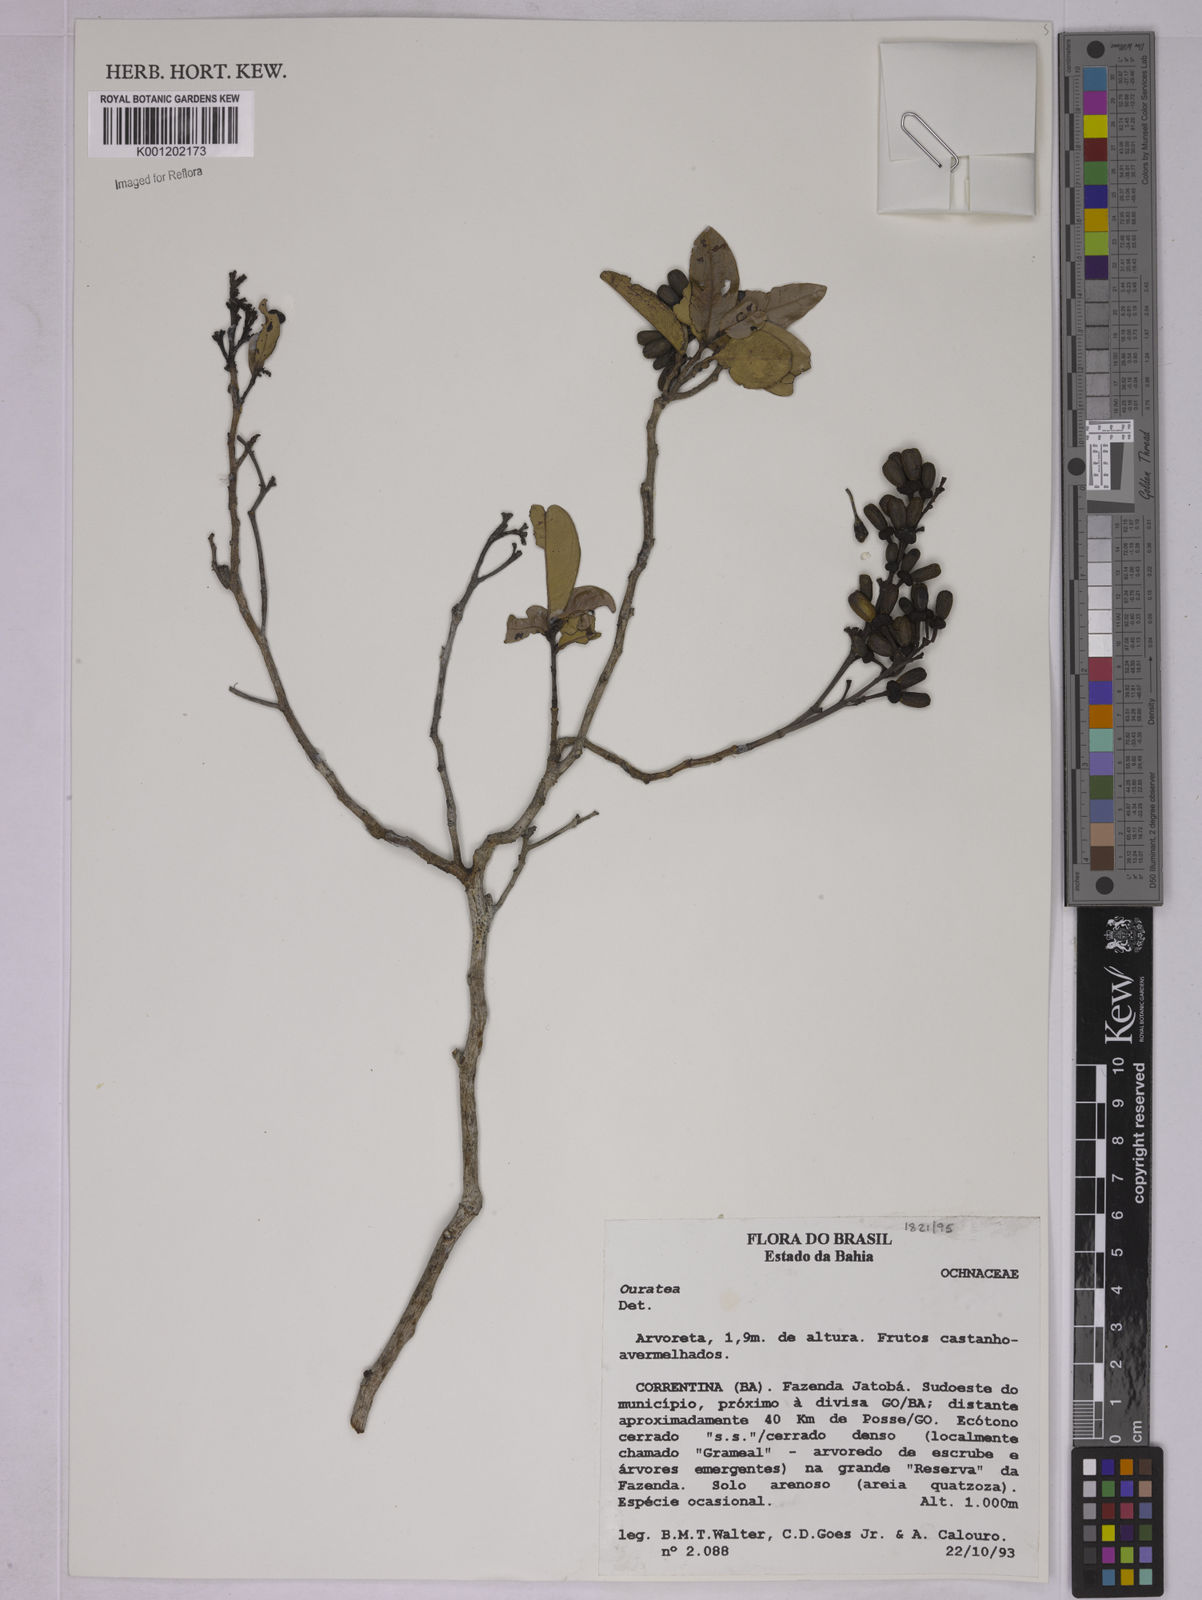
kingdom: Plantae
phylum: Tracheophyta
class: Magnoliopsida
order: Malpighiales
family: Ochnaceae
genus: Ouratea
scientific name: Ouratea
